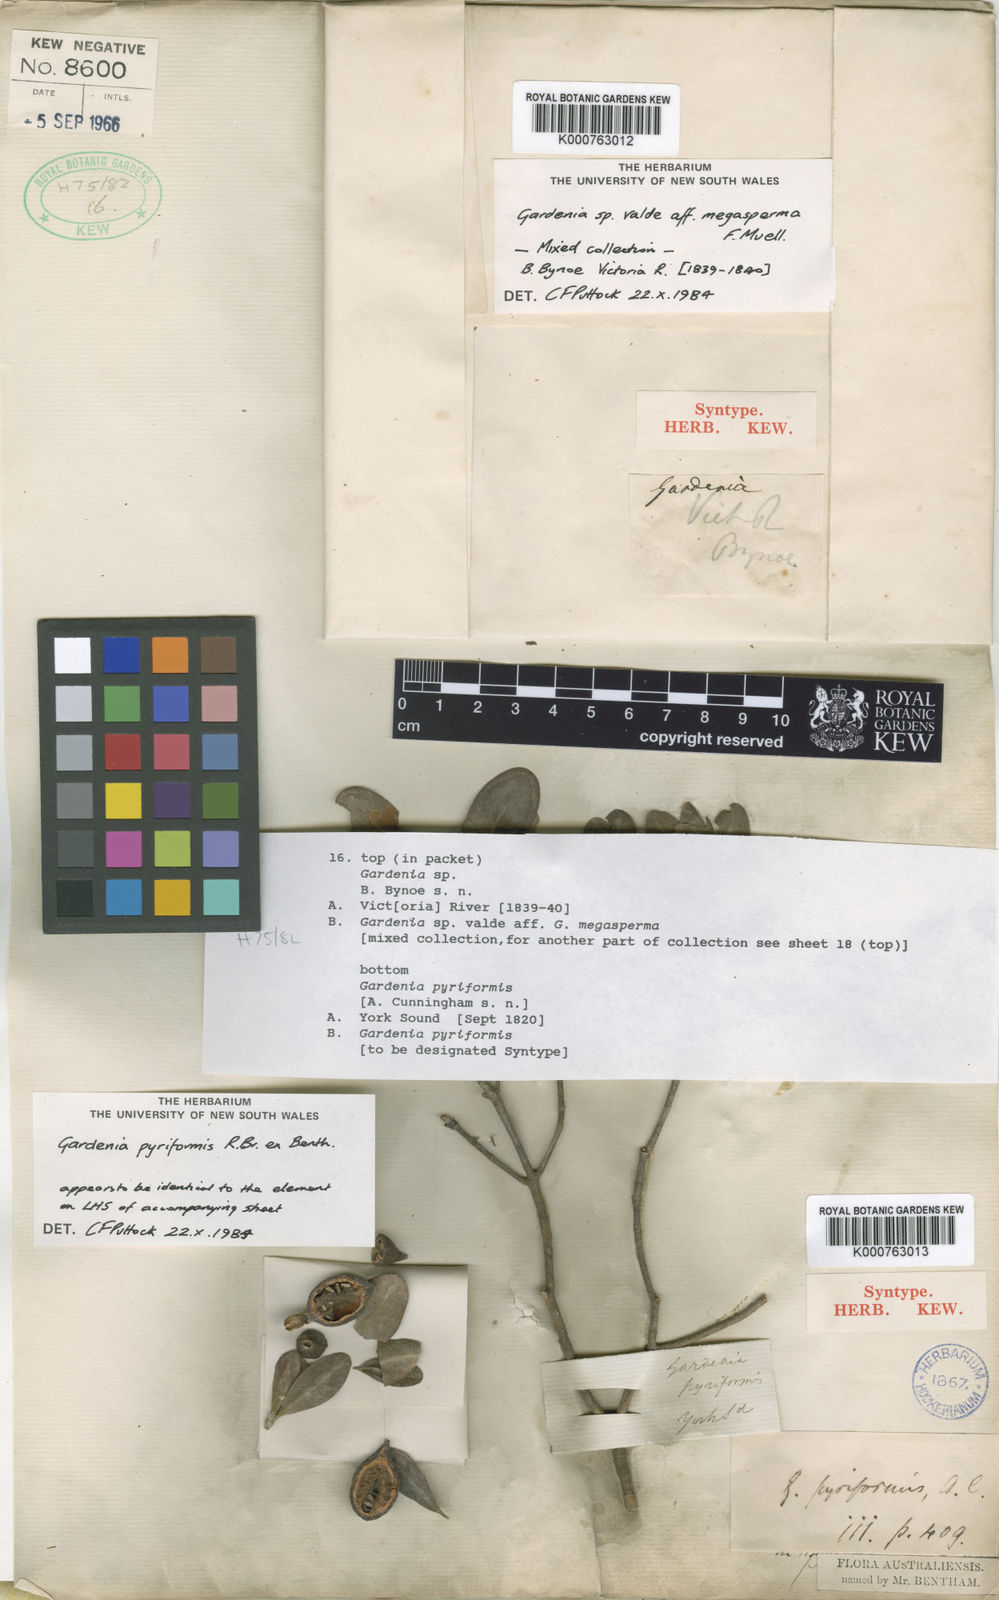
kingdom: Plantae
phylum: Tracheophyta
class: Magnoliopsida
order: Gentianales
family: Rubiaceae
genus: Gardenia
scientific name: Gardenia pyriformis
